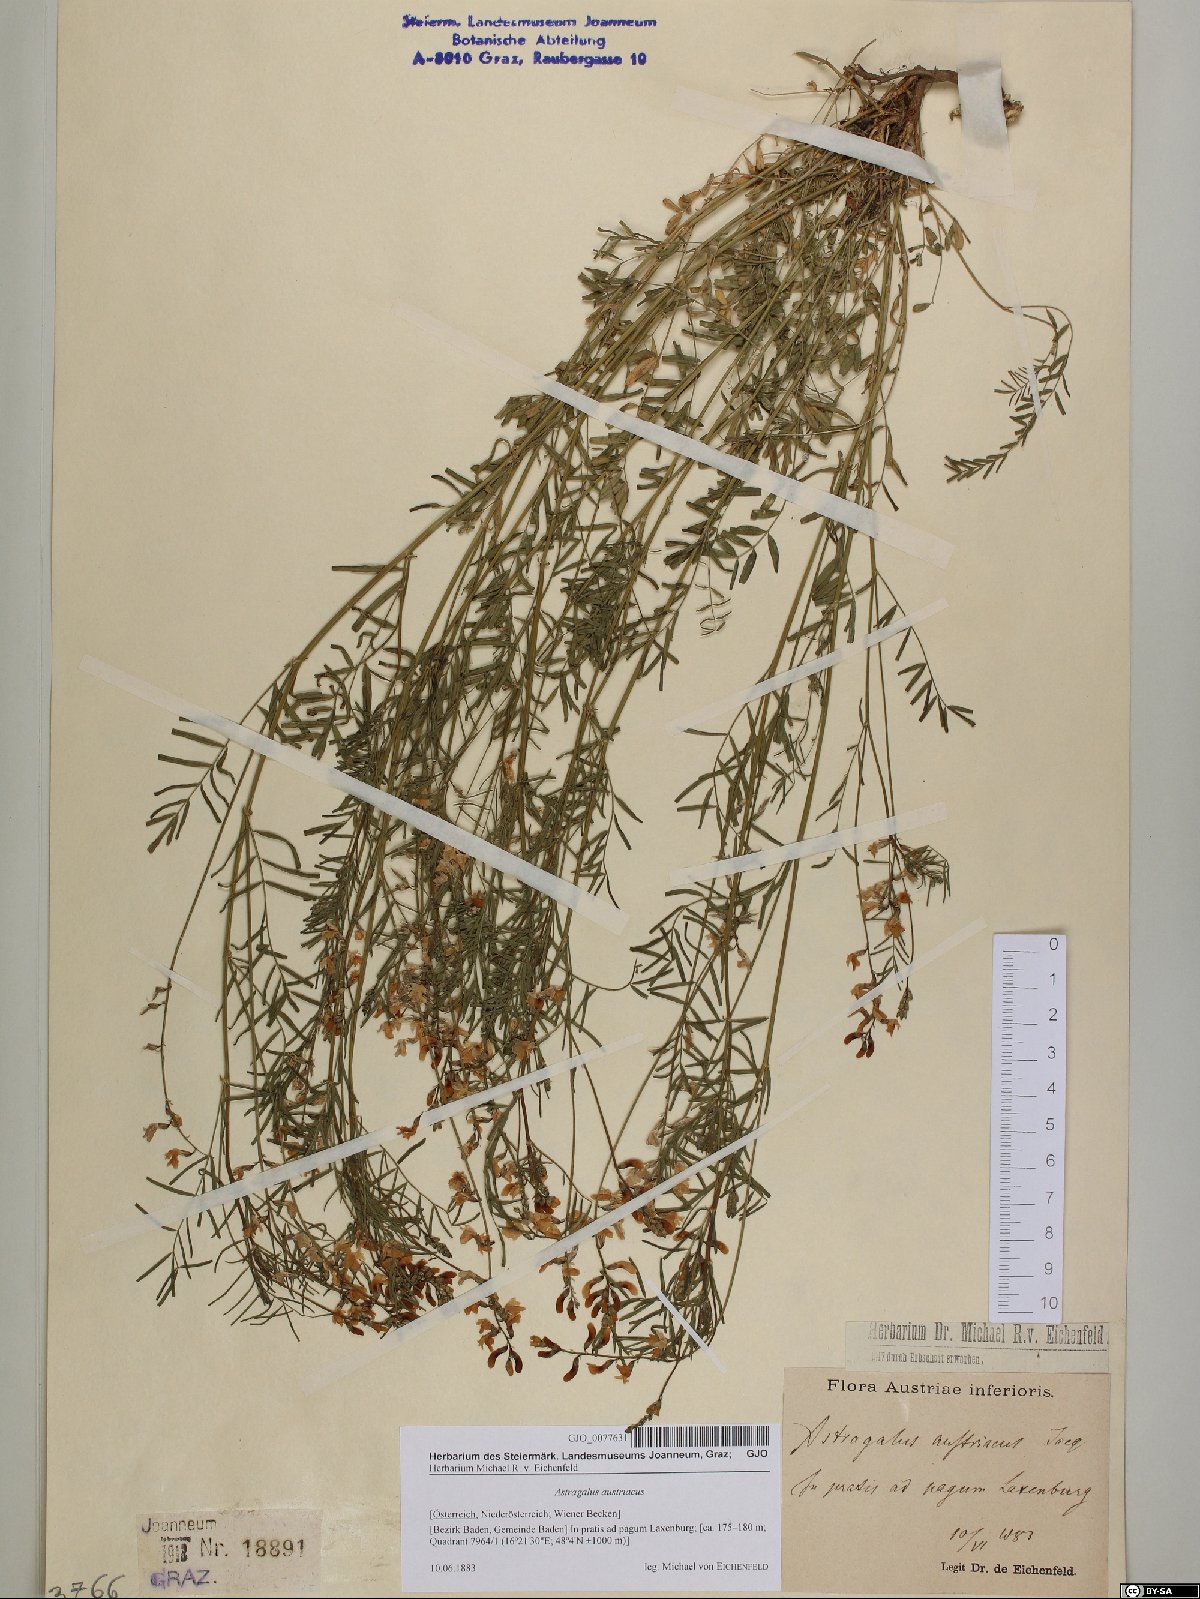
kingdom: Plantae
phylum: Tracheophyta
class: Magnoliopsida
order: Fabales
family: Fabaceae
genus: Astragalus
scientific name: Astragalus austriacus
